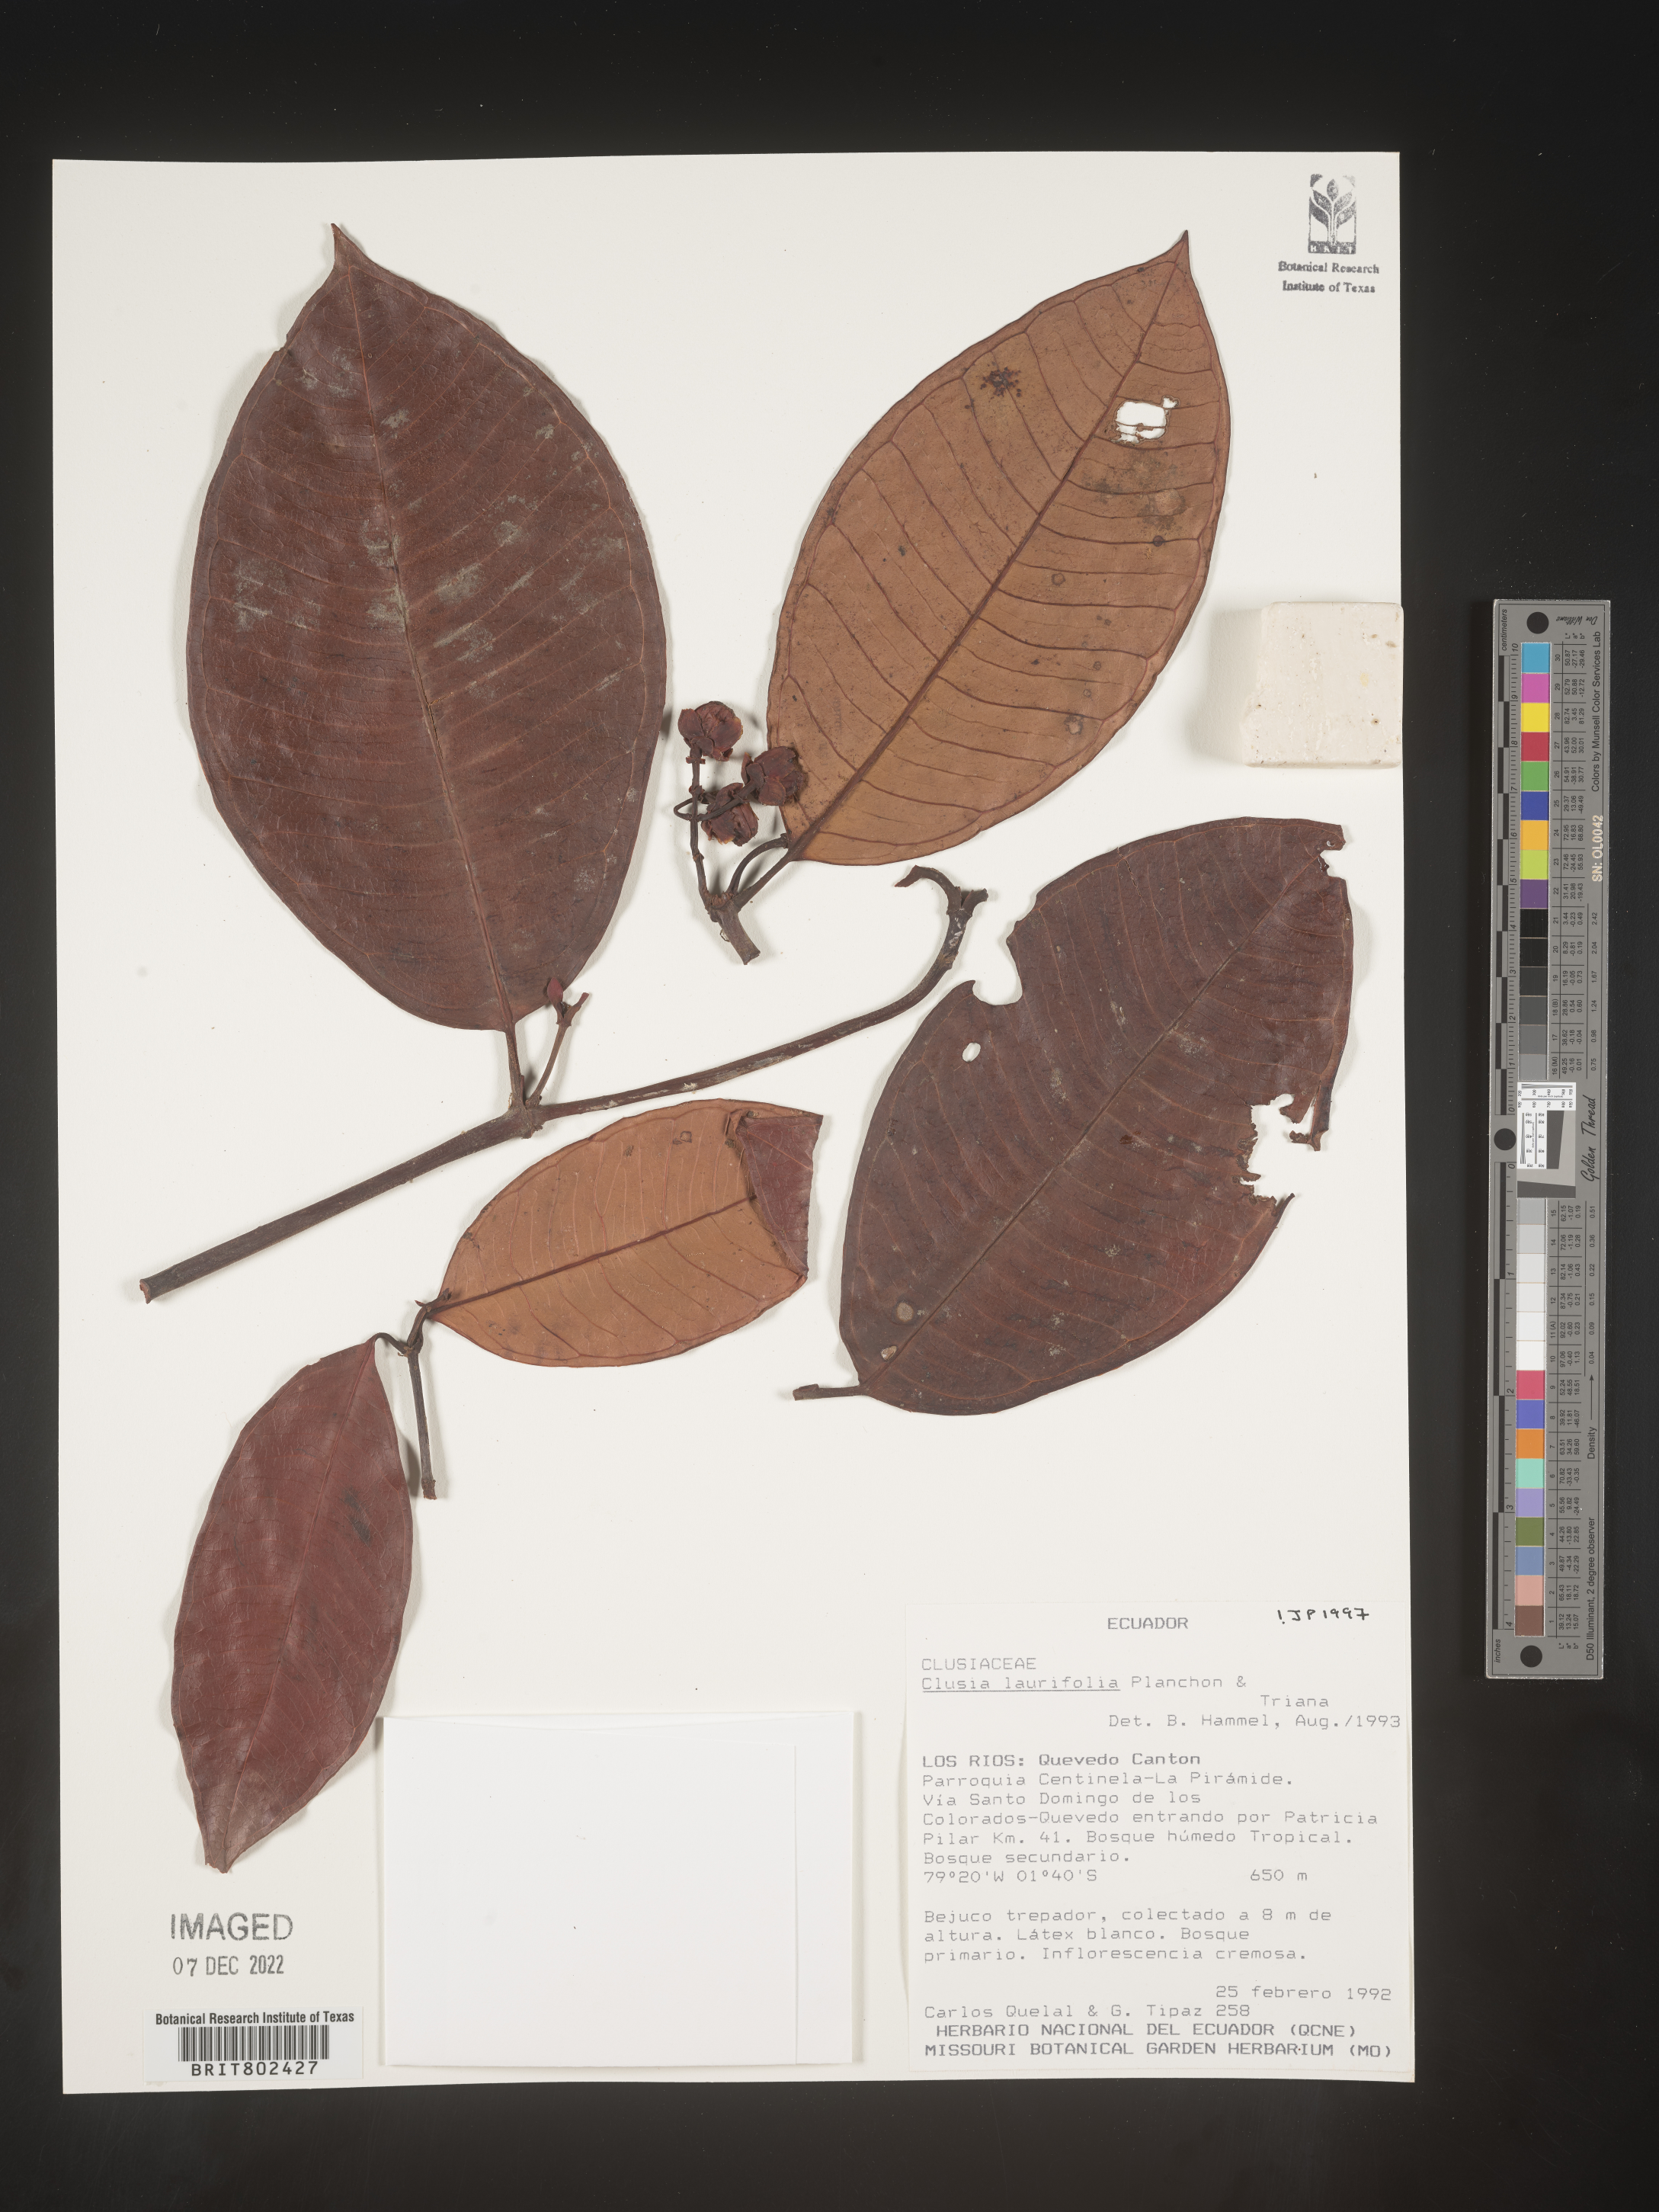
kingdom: Plantae
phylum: Tracheophyta
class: Magnoliopsida
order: Malpighiales
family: Clusiaceae
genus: Clusia
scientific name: Clusia laurifolia
